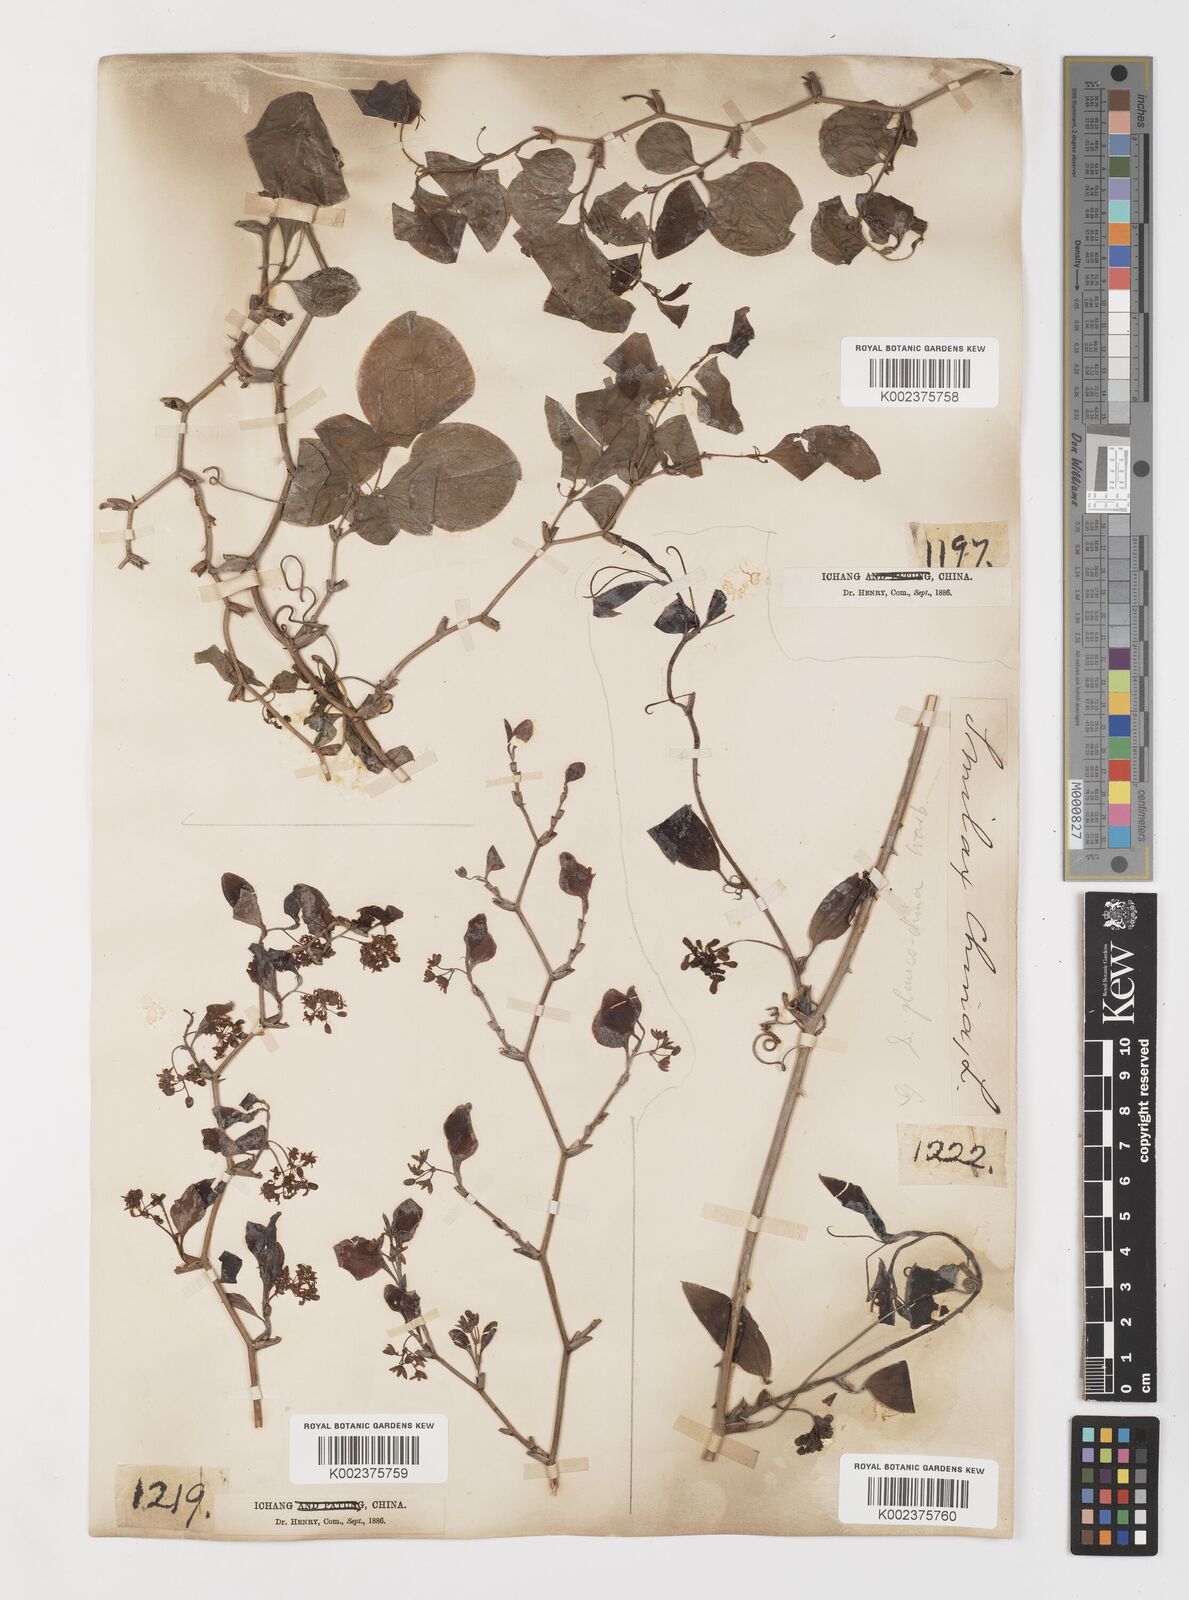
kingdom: Plantae
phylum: Tracheophyta
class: Liliopsida
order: Liliales
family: Smilacaceae
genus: Smilax
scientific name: Smilax china
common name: Chinaroot
